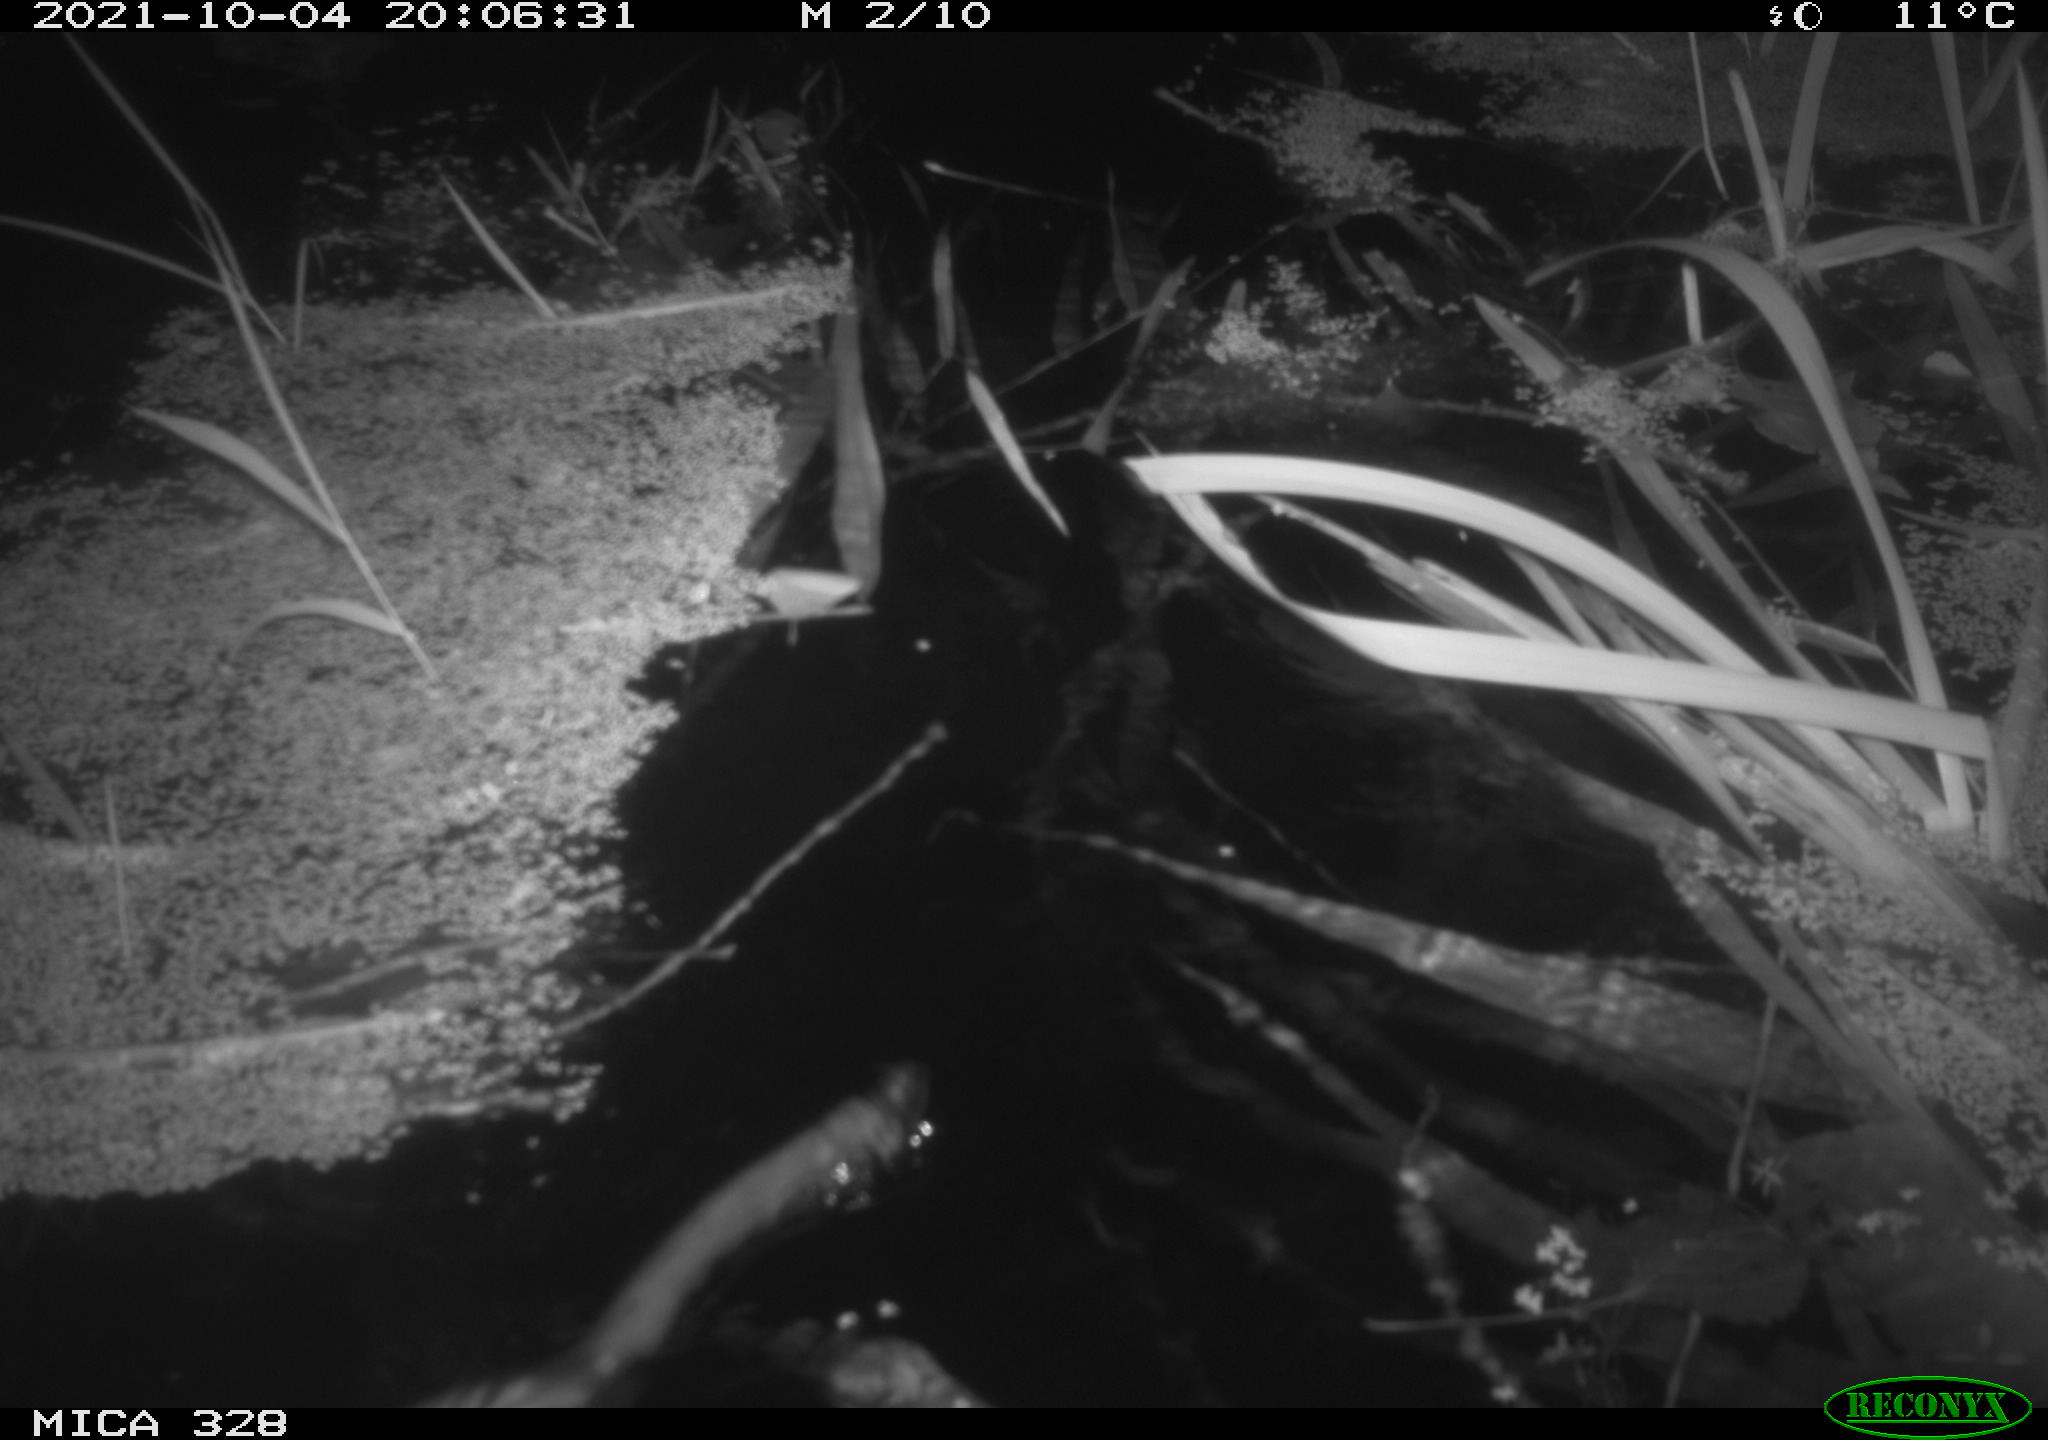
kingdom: Animalia
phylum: Chordata
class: Mammalia
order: Rodentia
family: Cricetidae
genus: Ondatra
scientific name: Ondatra zibethicus
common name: Muskrat
